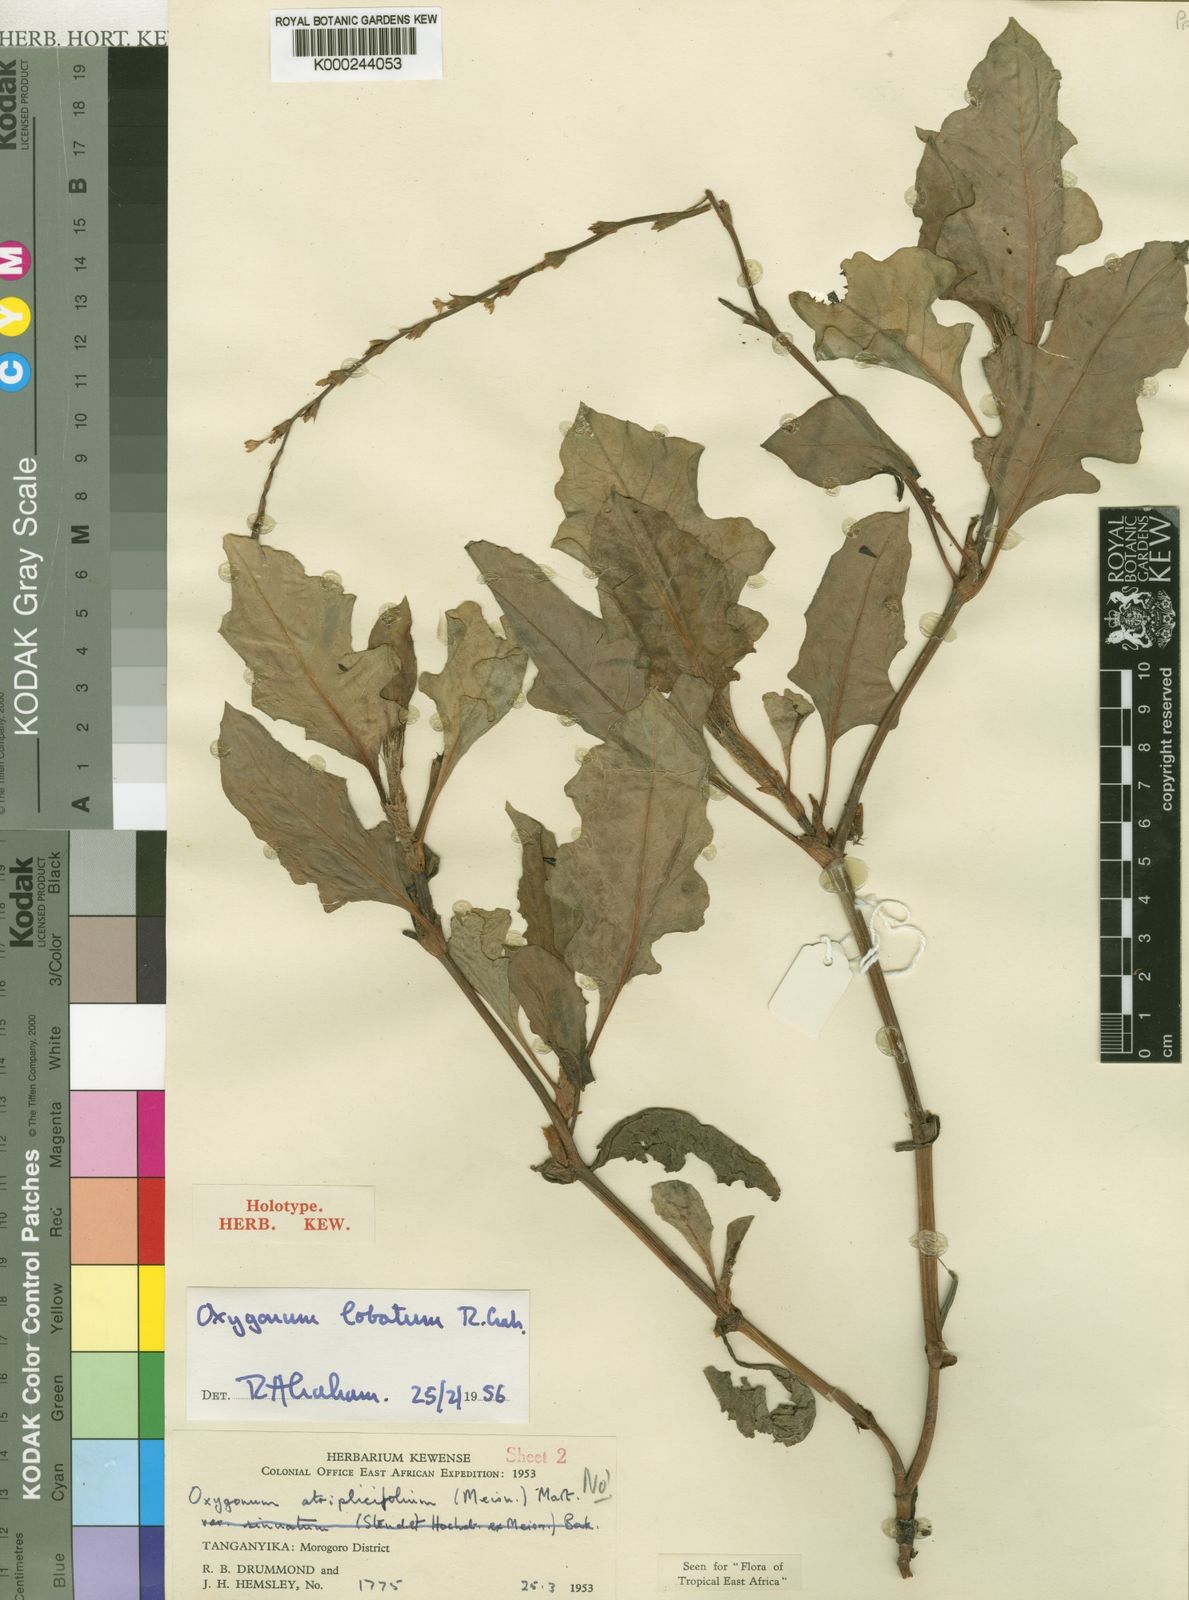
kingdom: Plantae
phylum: Tracheophyta
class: Magnoliopsida
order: Caryophyllales
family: Polygonaceae
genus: Oxygonum
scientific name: Oxygonum lobatum
